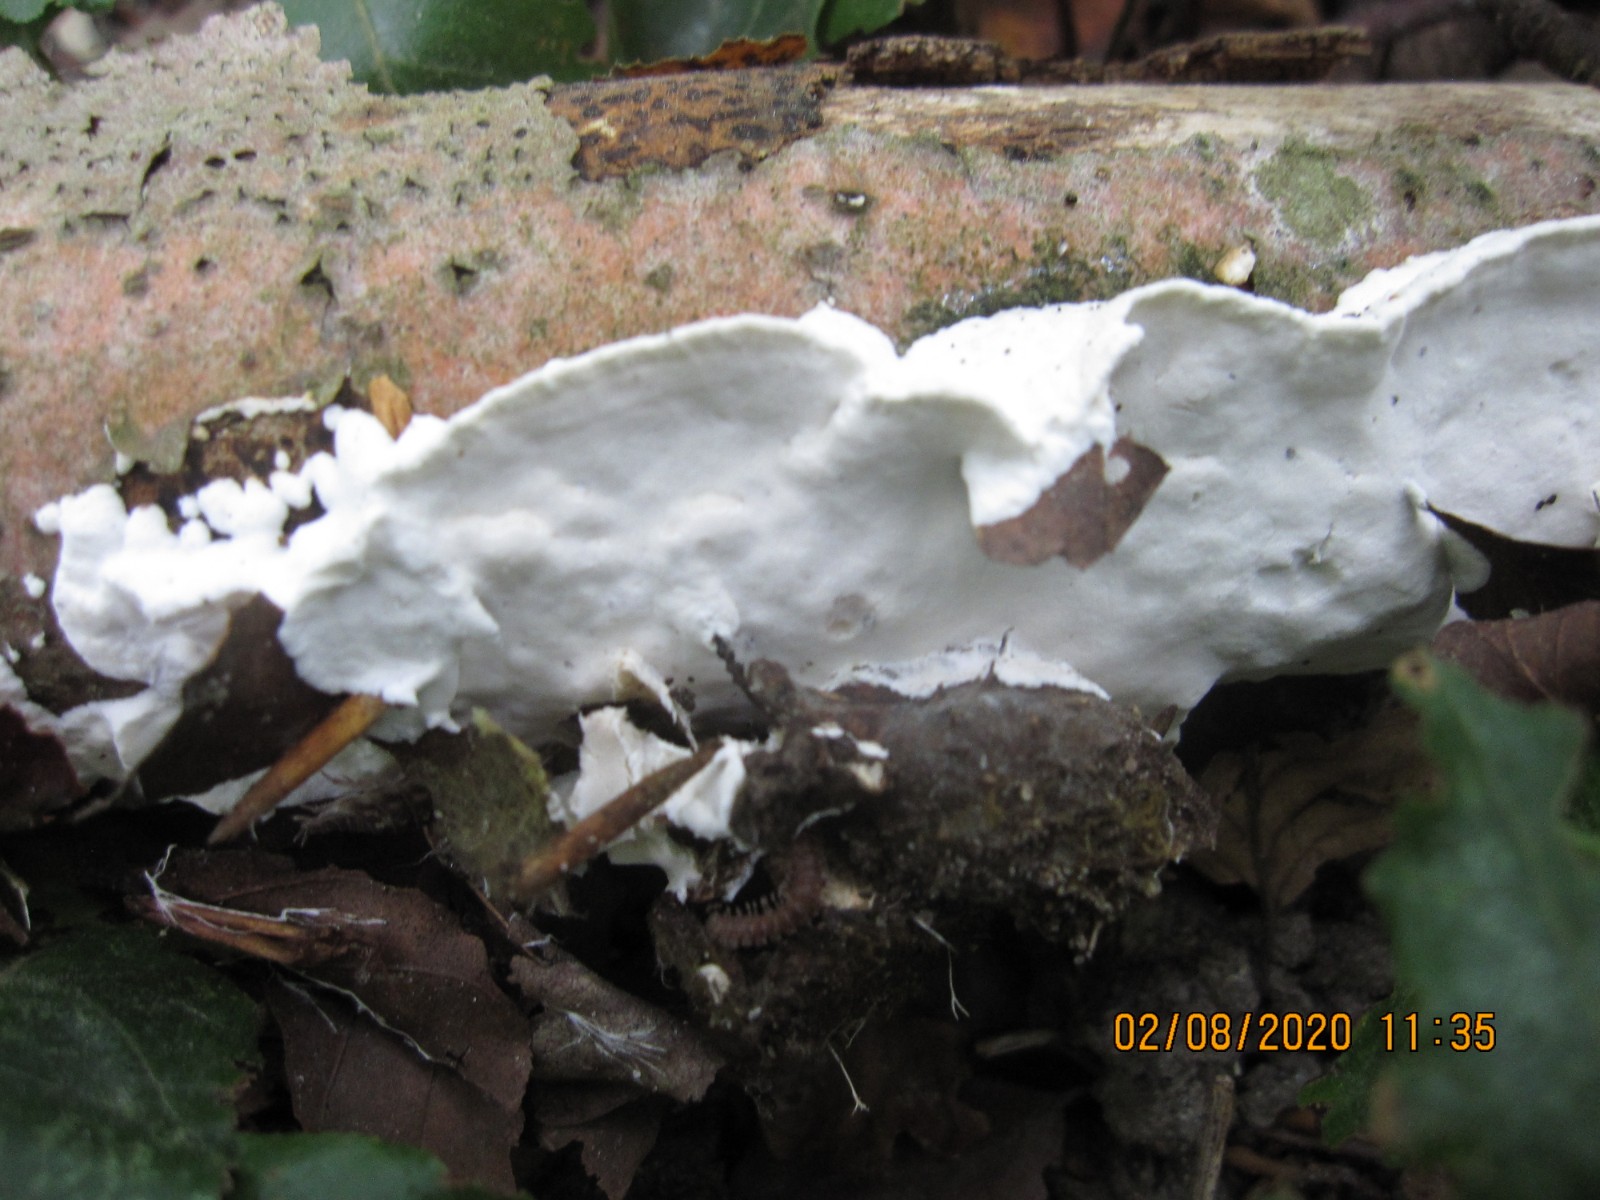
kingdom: Fungi
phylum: Basidiomycota
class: Agaricomycetes
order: Polyporales
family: Incrustoporiaceae
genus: Skeletocutis
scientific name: Skeletocutis nemoralis
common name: stor krystalporesvamp
